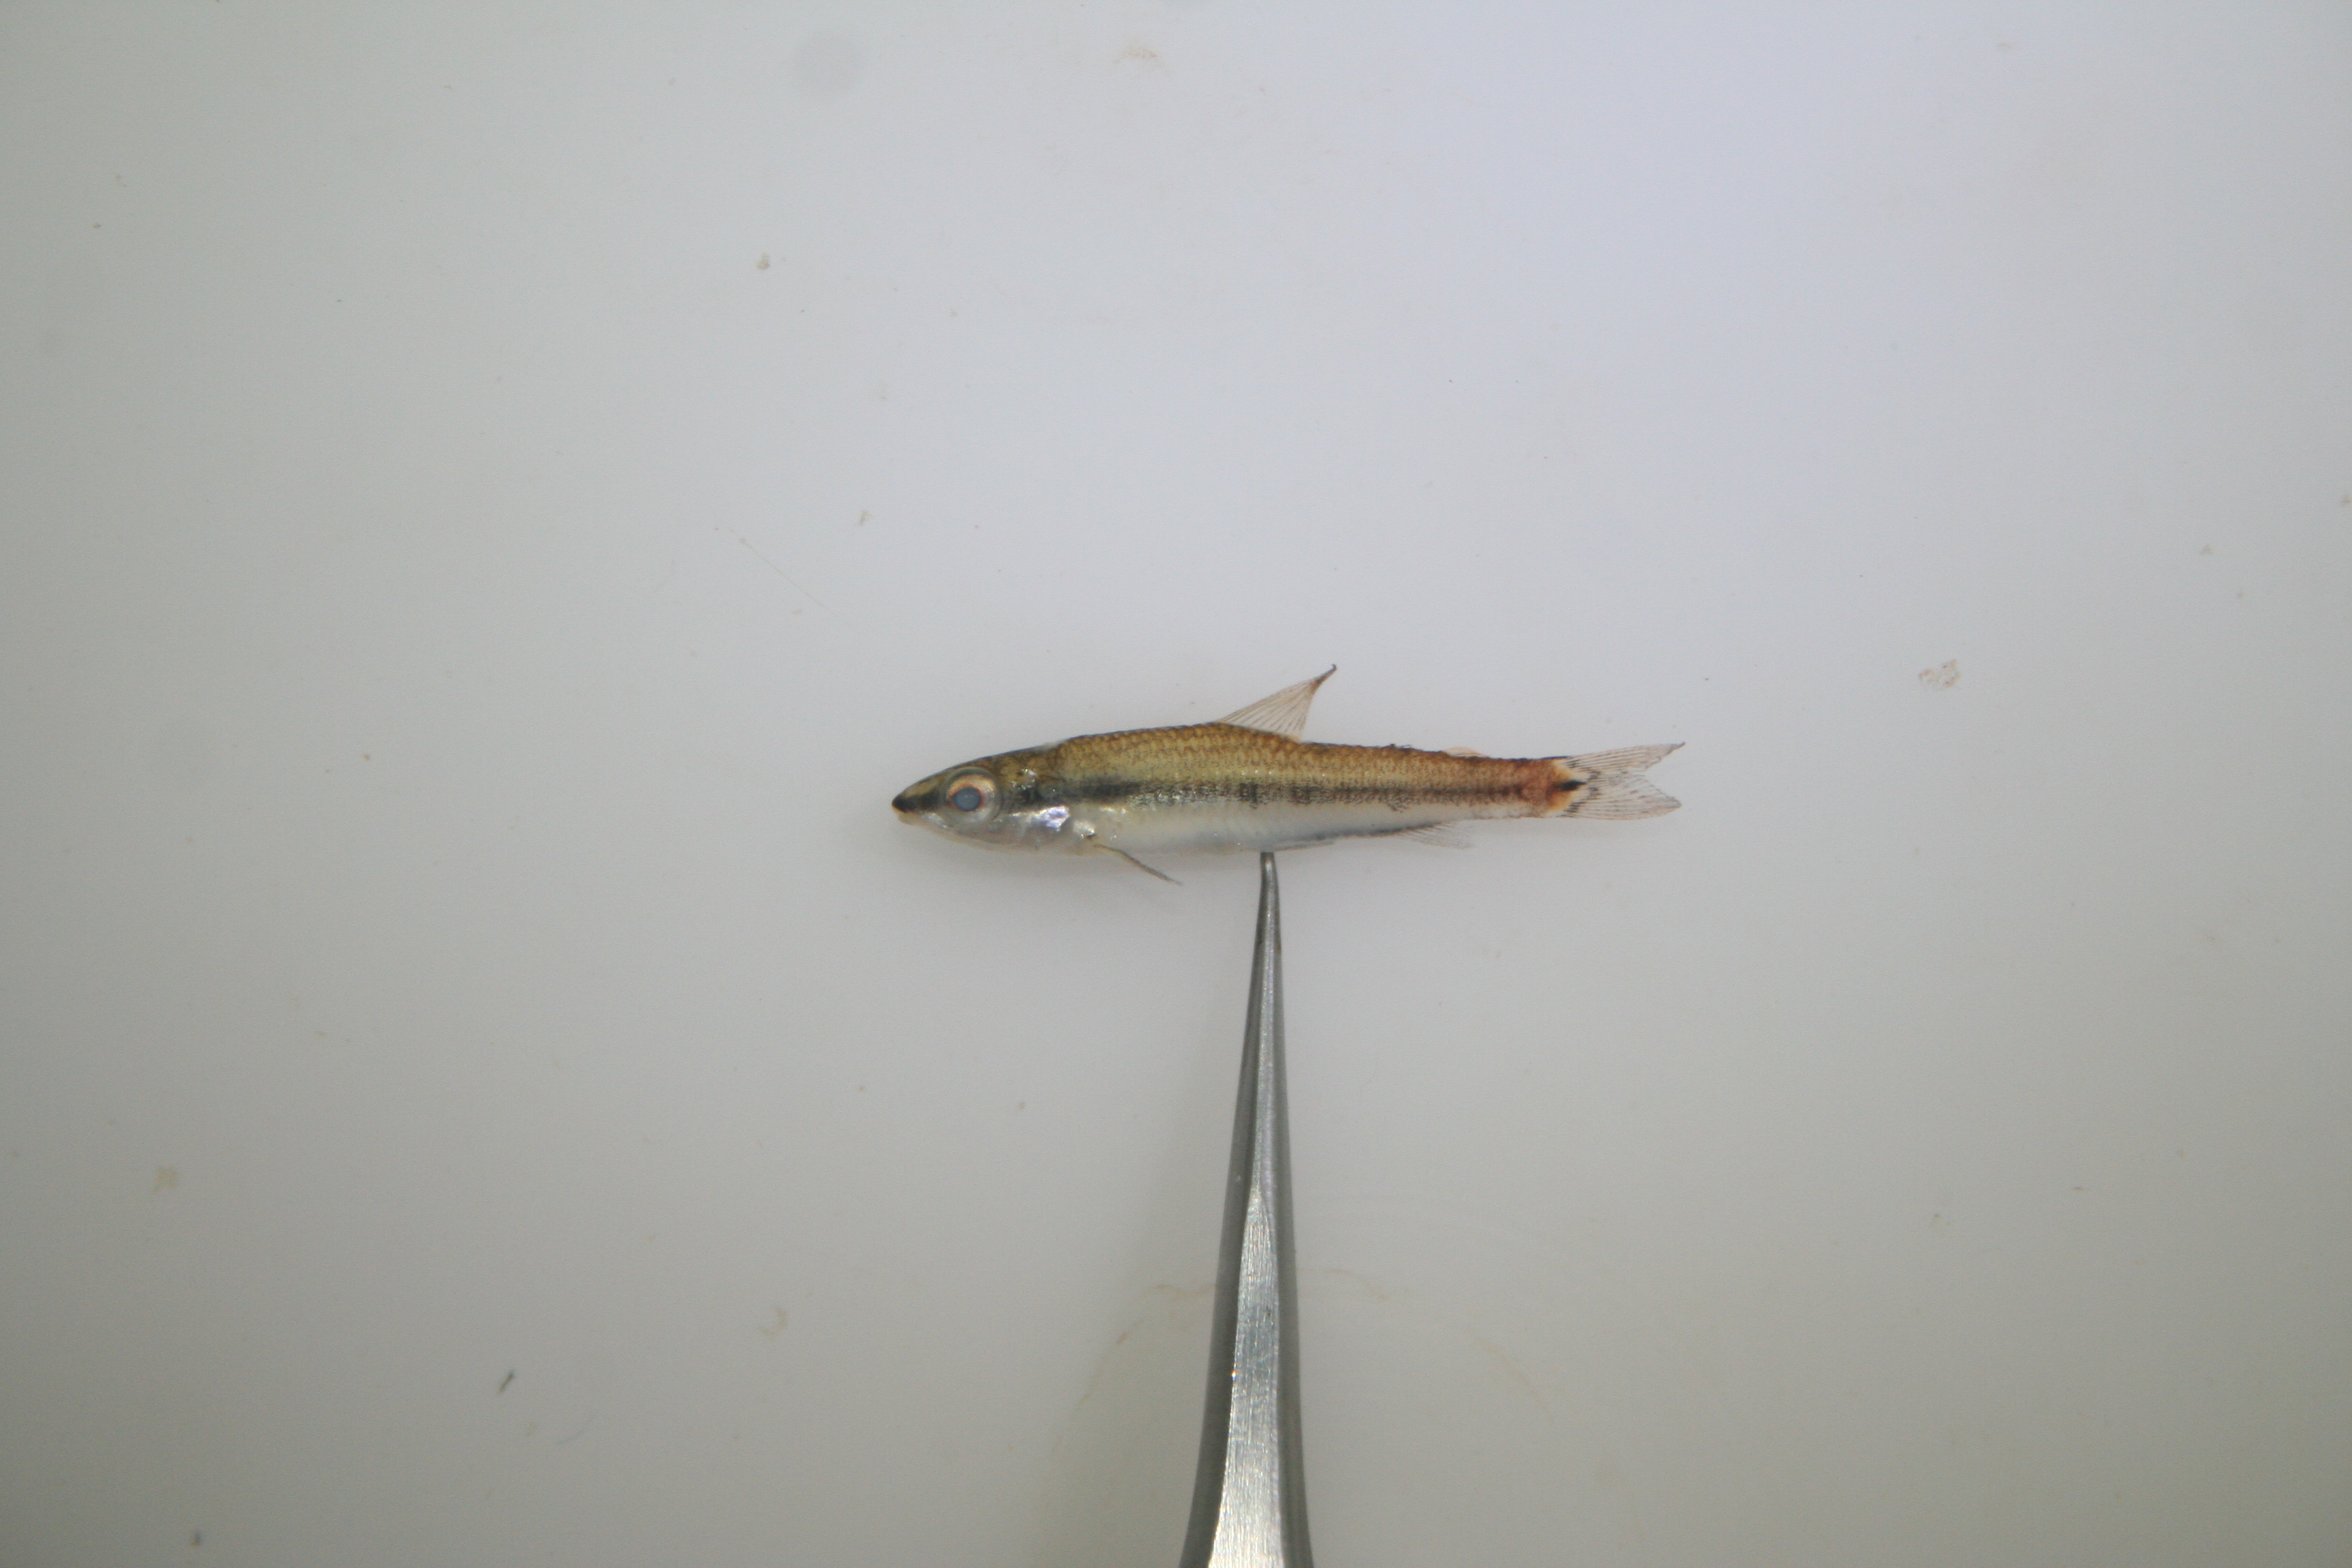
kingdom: Animalia
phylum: Chordata
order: Characiformes
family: Distichodontidae
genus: Nannocharax
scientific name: Nannocharax lineostriatus
